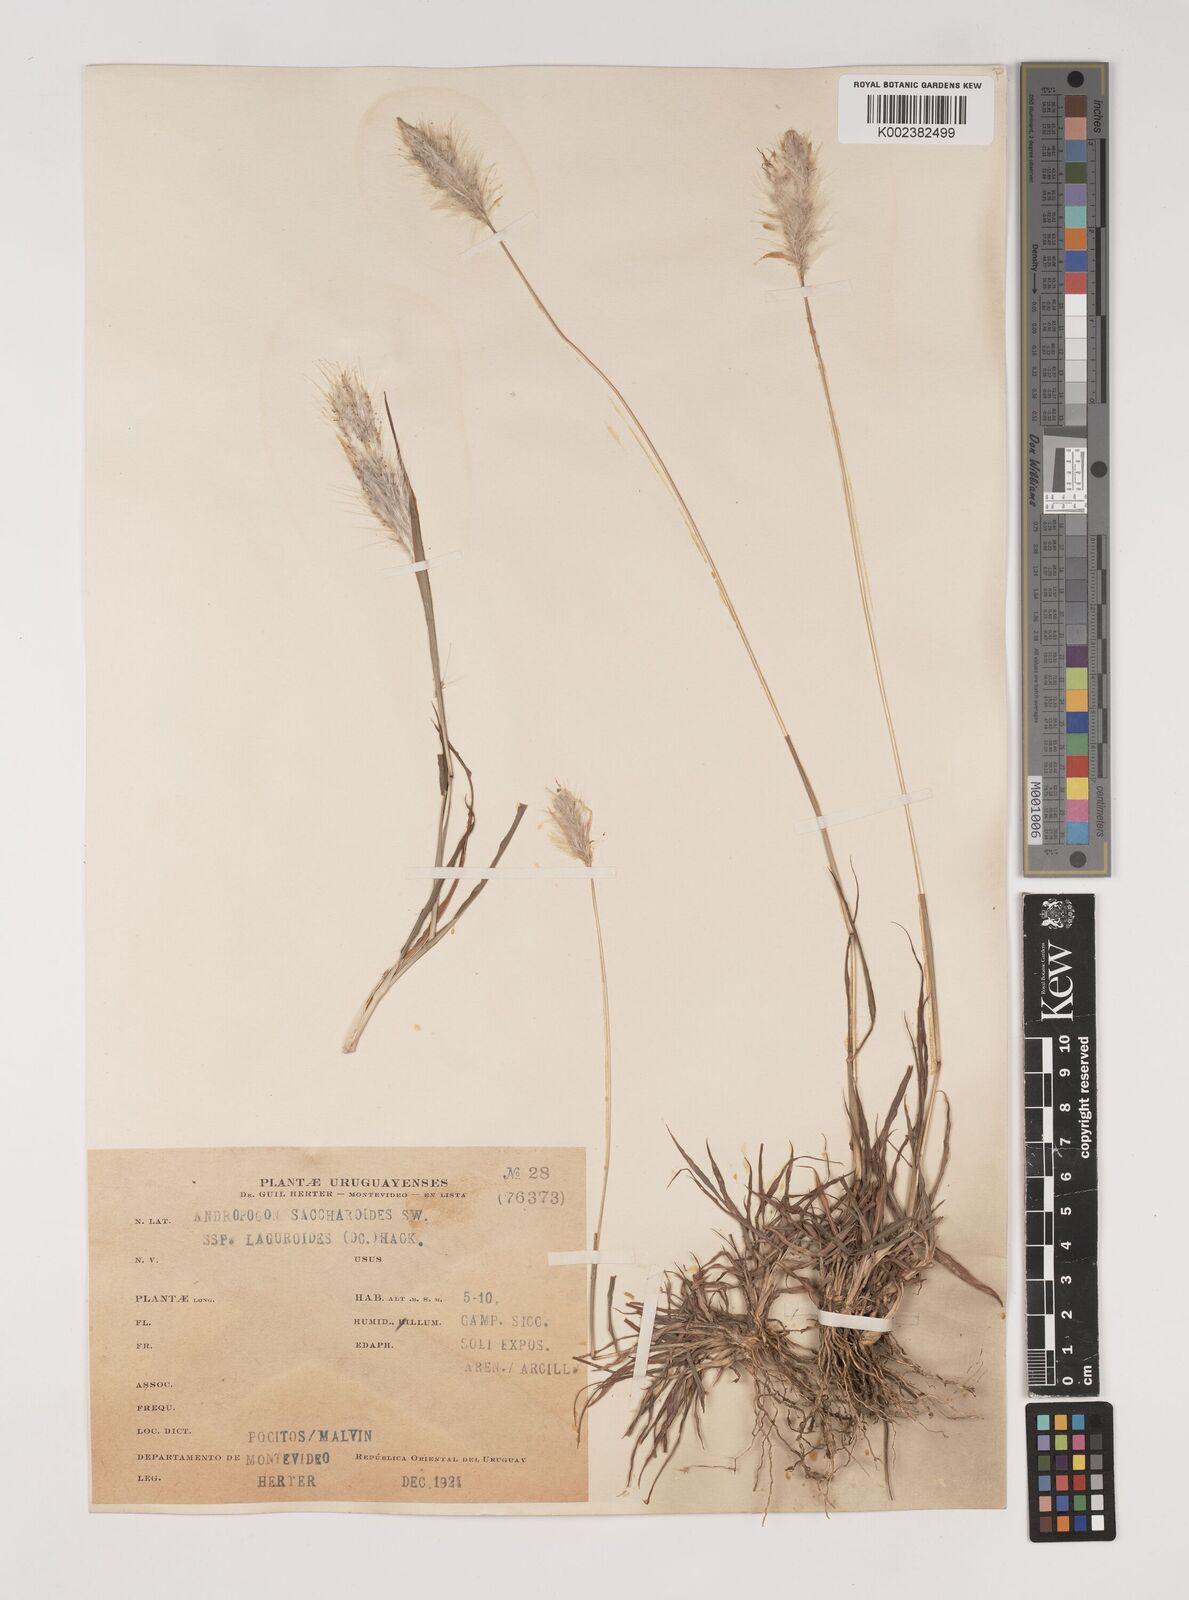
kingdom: Plantae
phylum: Tracheophyta
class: Liliopsida
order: Poales
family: Poaceae
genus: Bothriochloa
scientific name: Bothriochloa laguroides
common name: Silver bluestem
